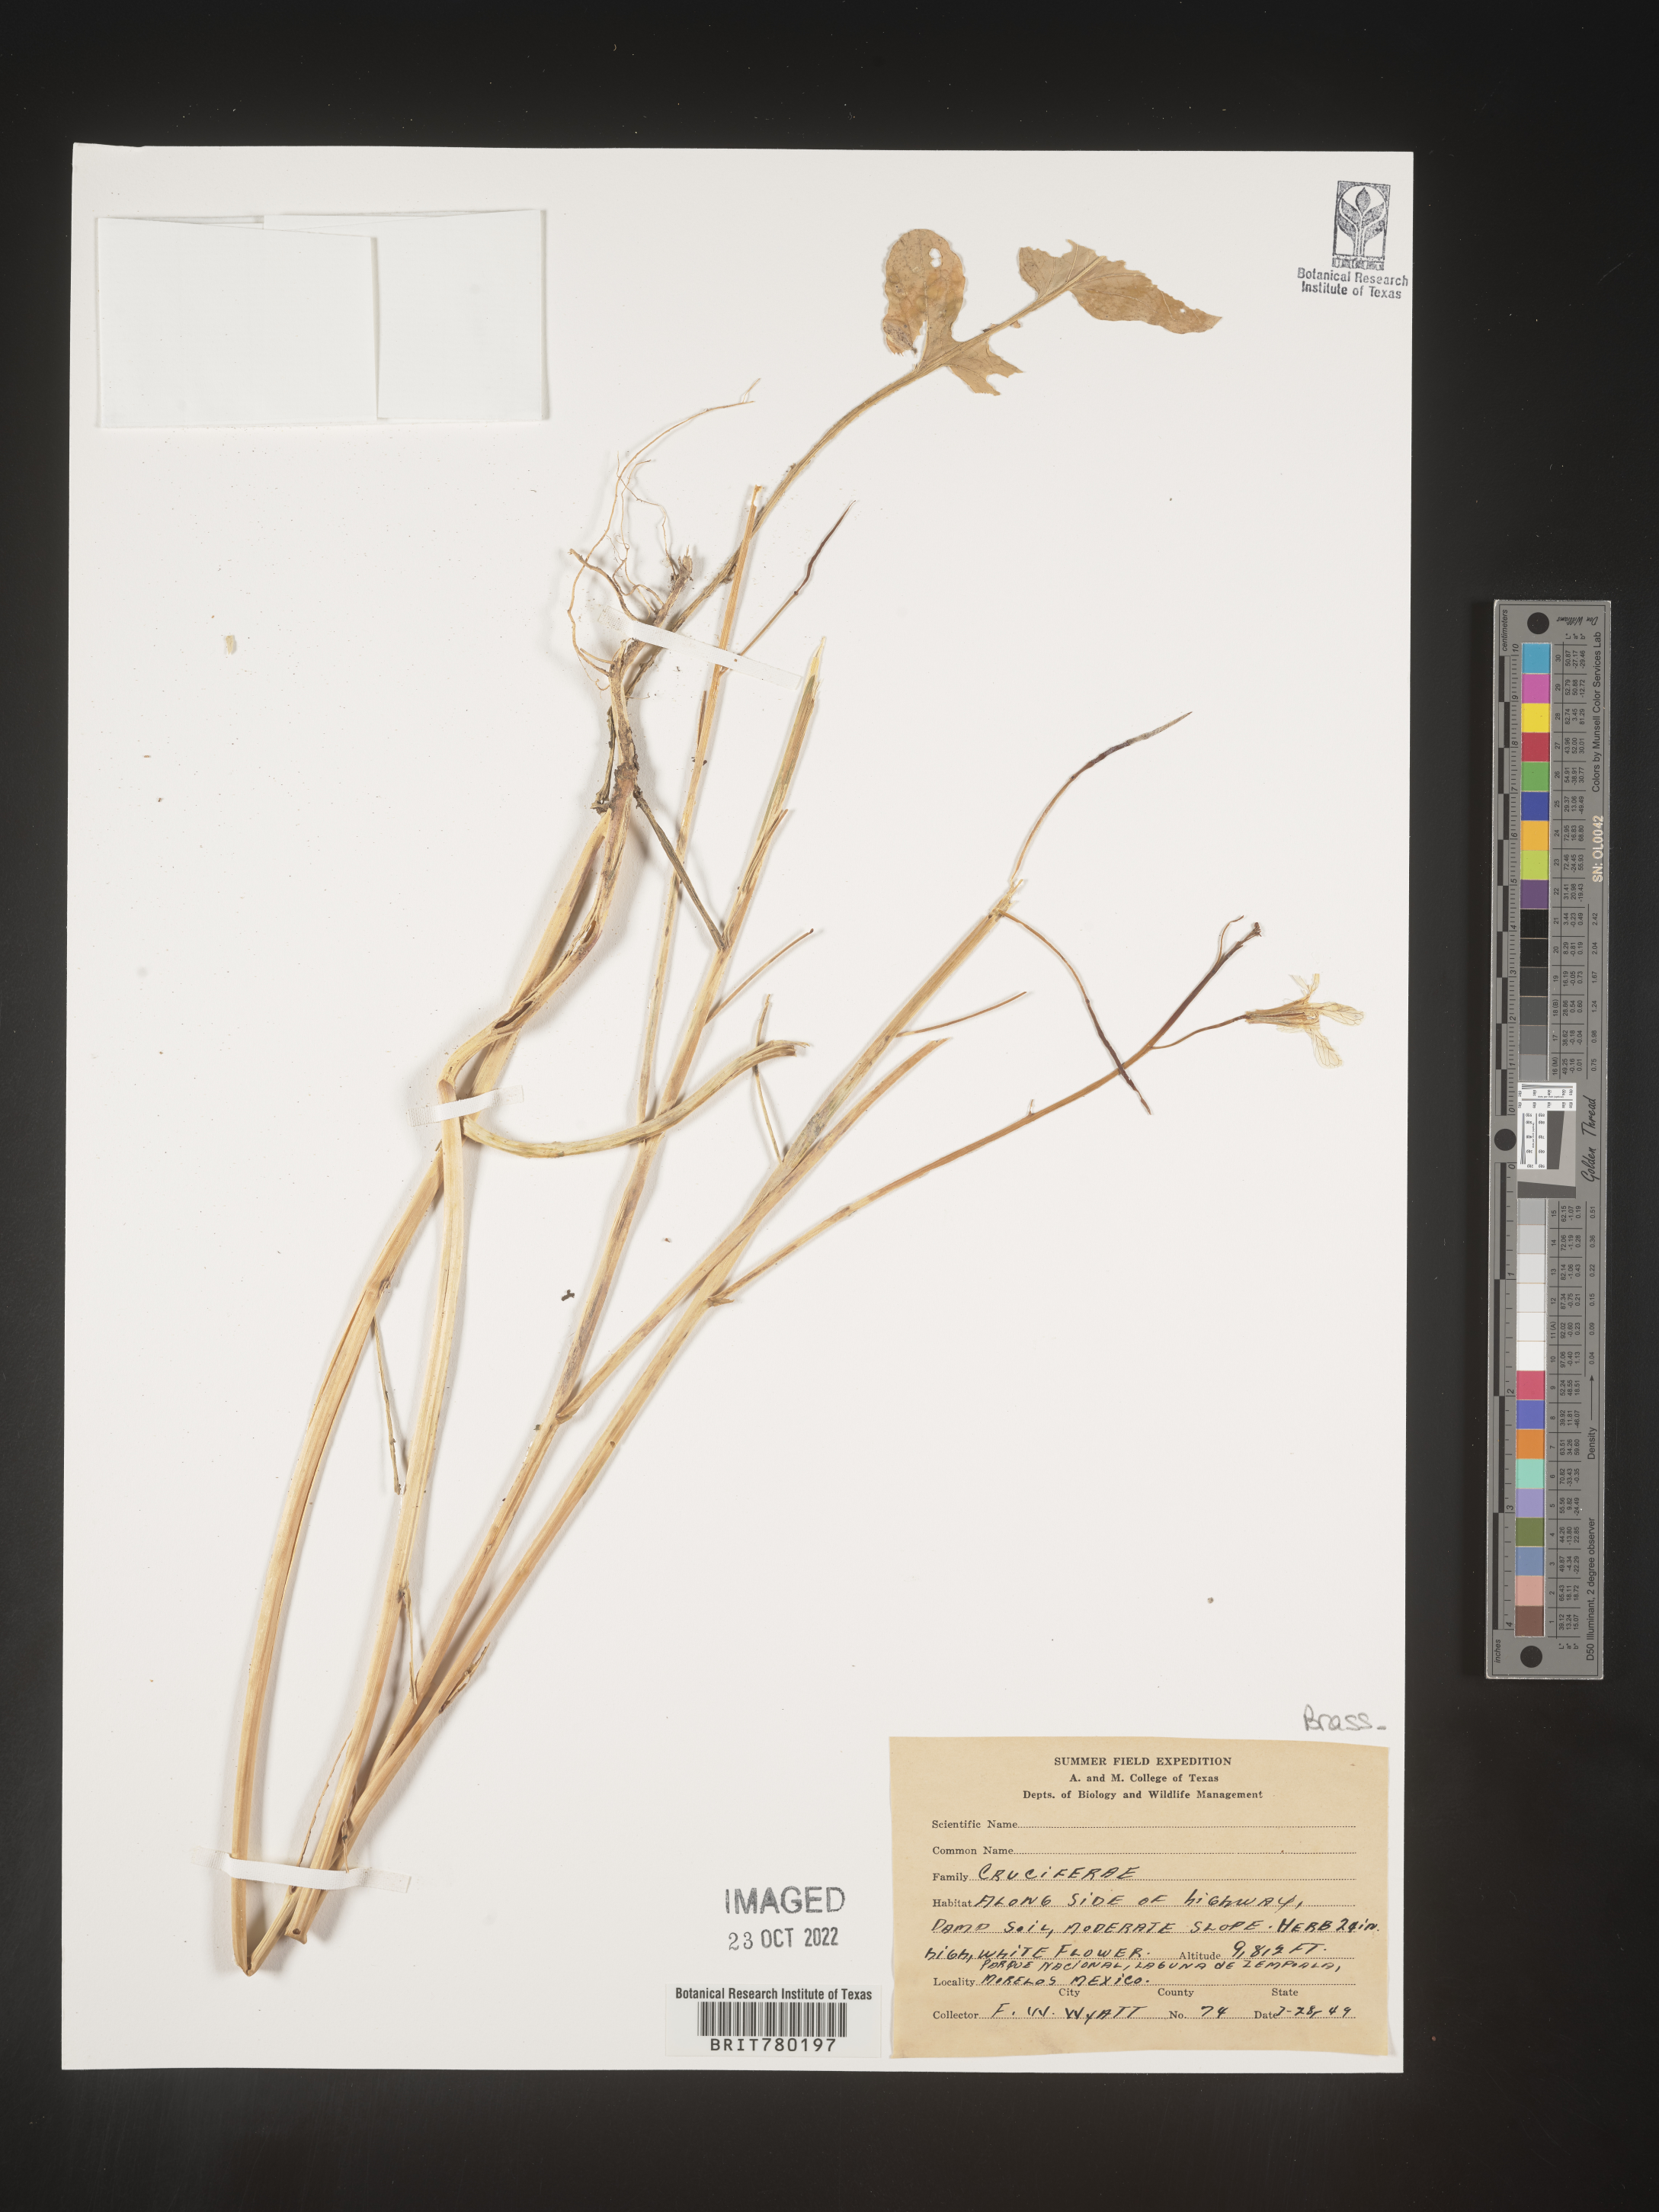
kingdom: Plantae
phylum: Tracheophyta
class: Magnoliopsida
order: Brassicales
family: Brassicaceae
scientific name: Brassicaceae
